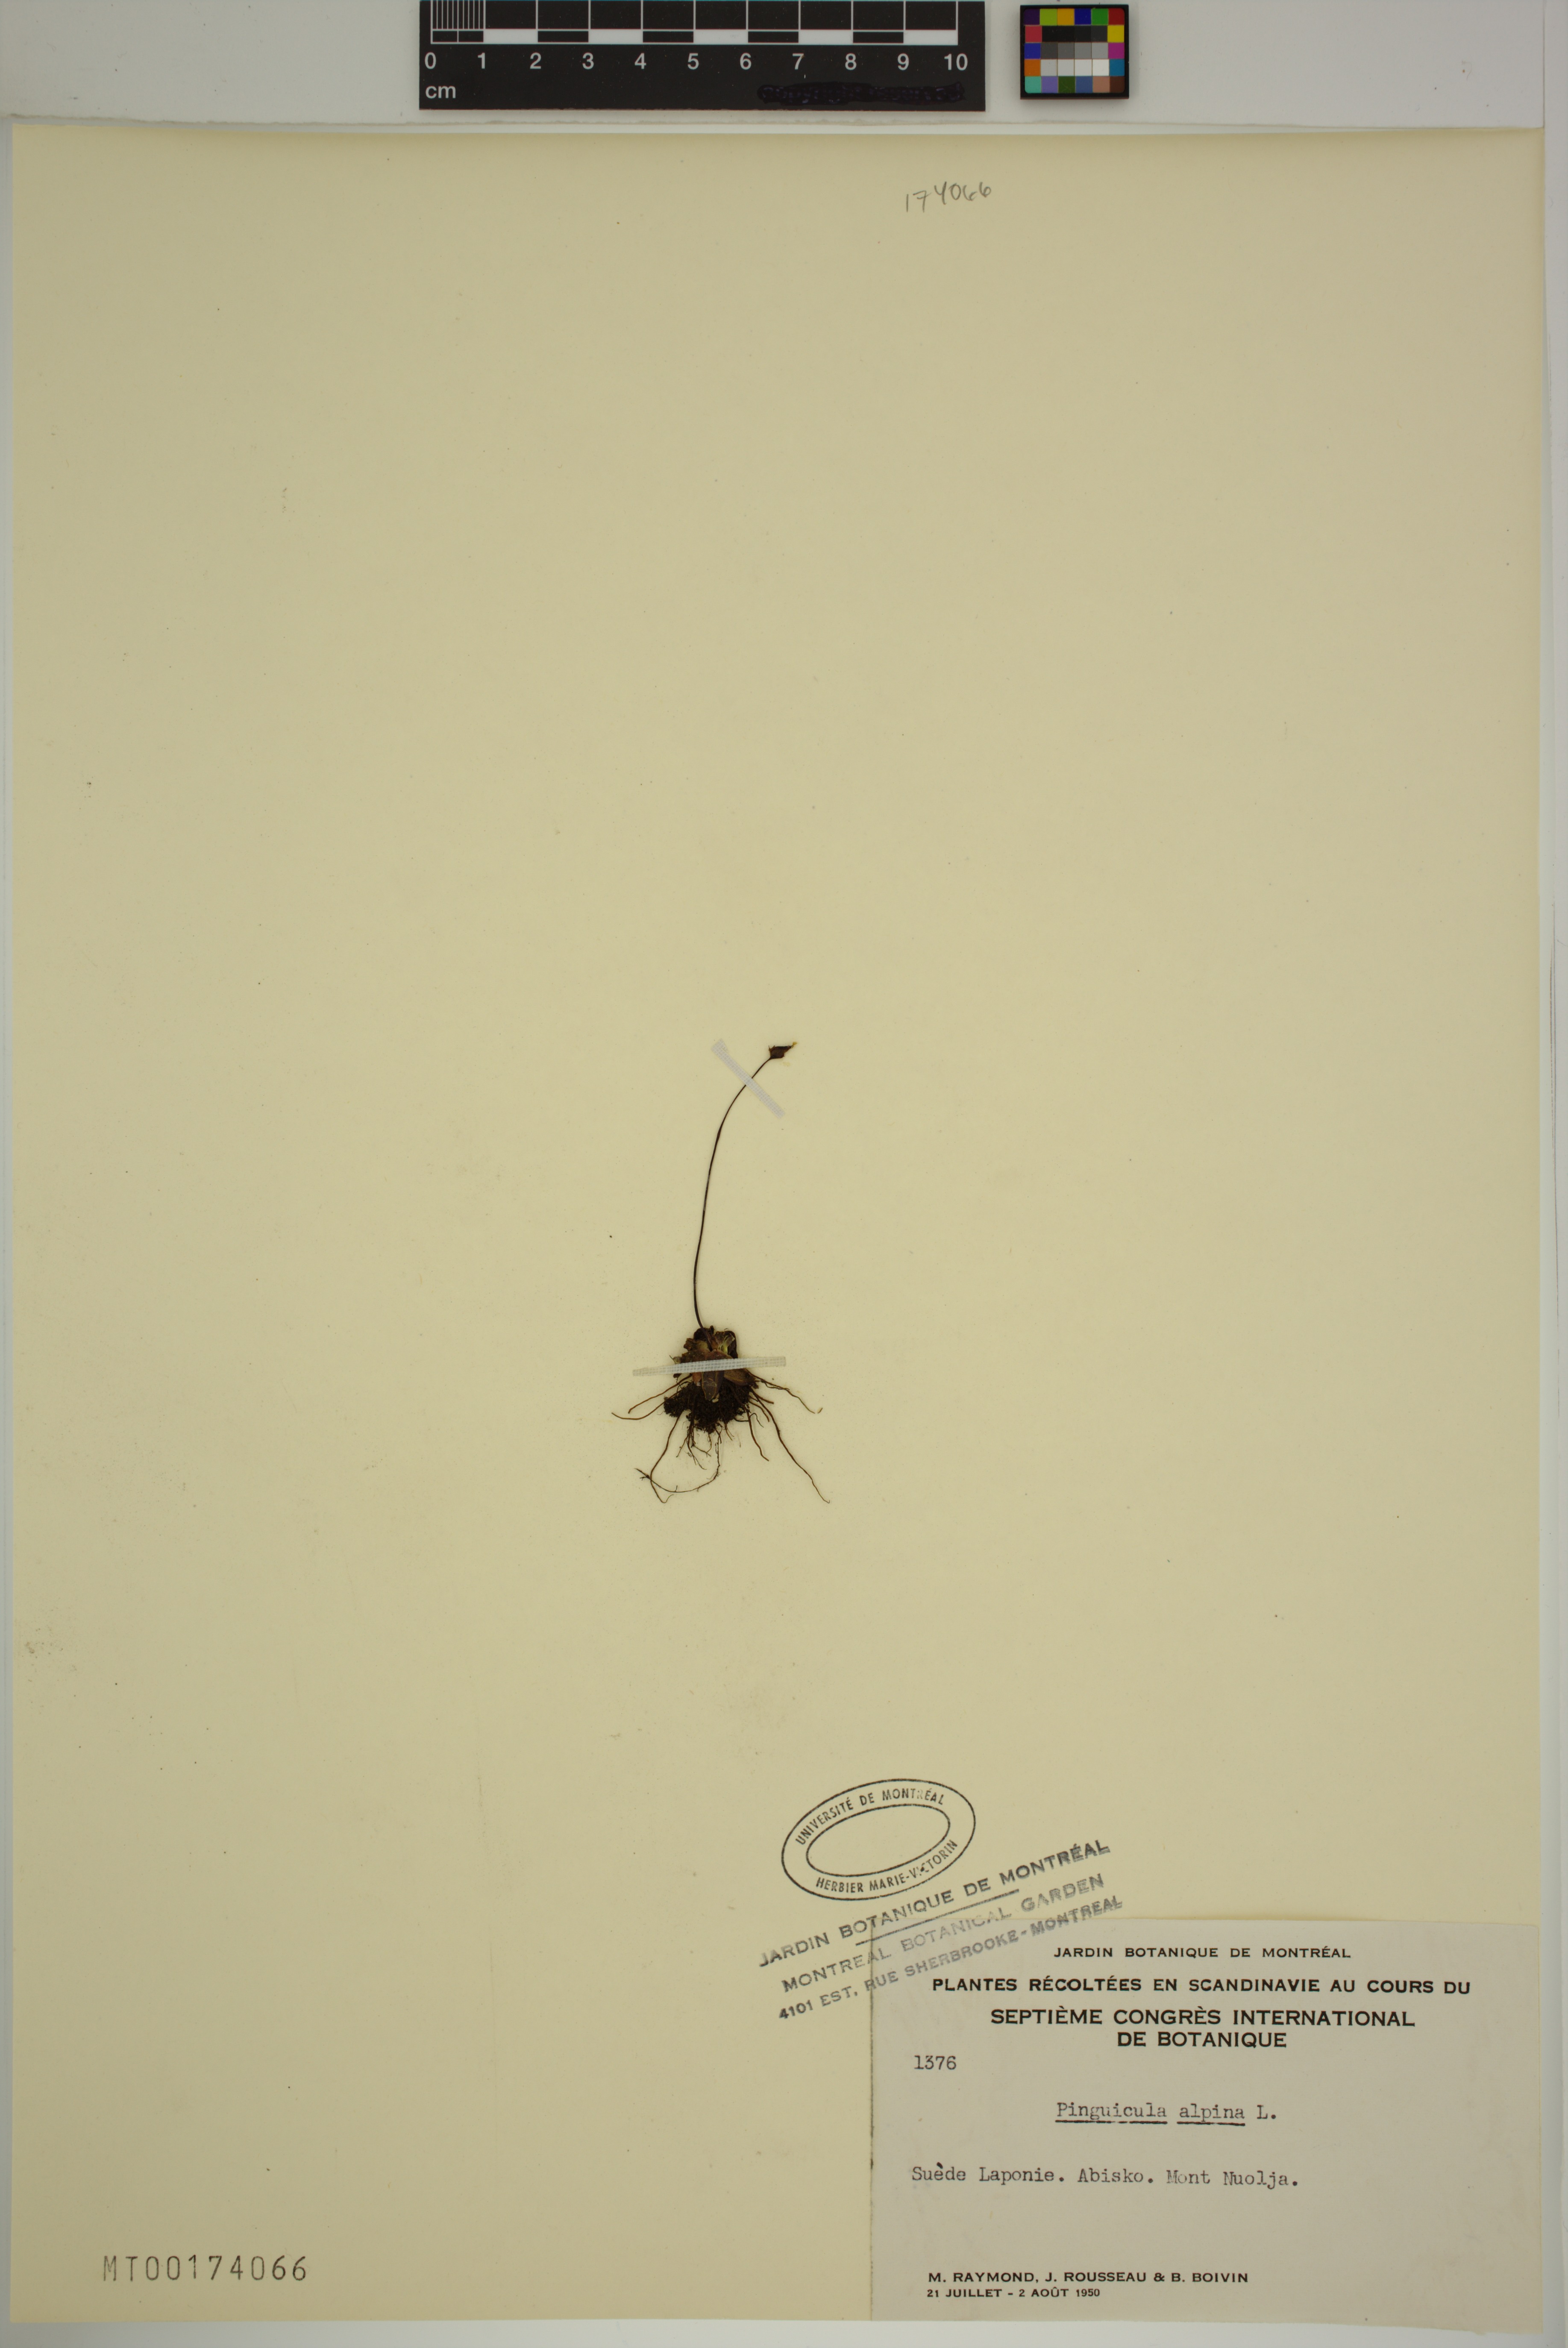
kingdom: Plantae
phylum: Tracheophyta
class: Magnoliopsida
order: Lamiales
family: Lentibulariaceae
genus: Pinguicula
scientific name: Pinguicula alpina
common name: Alpine butterwort
